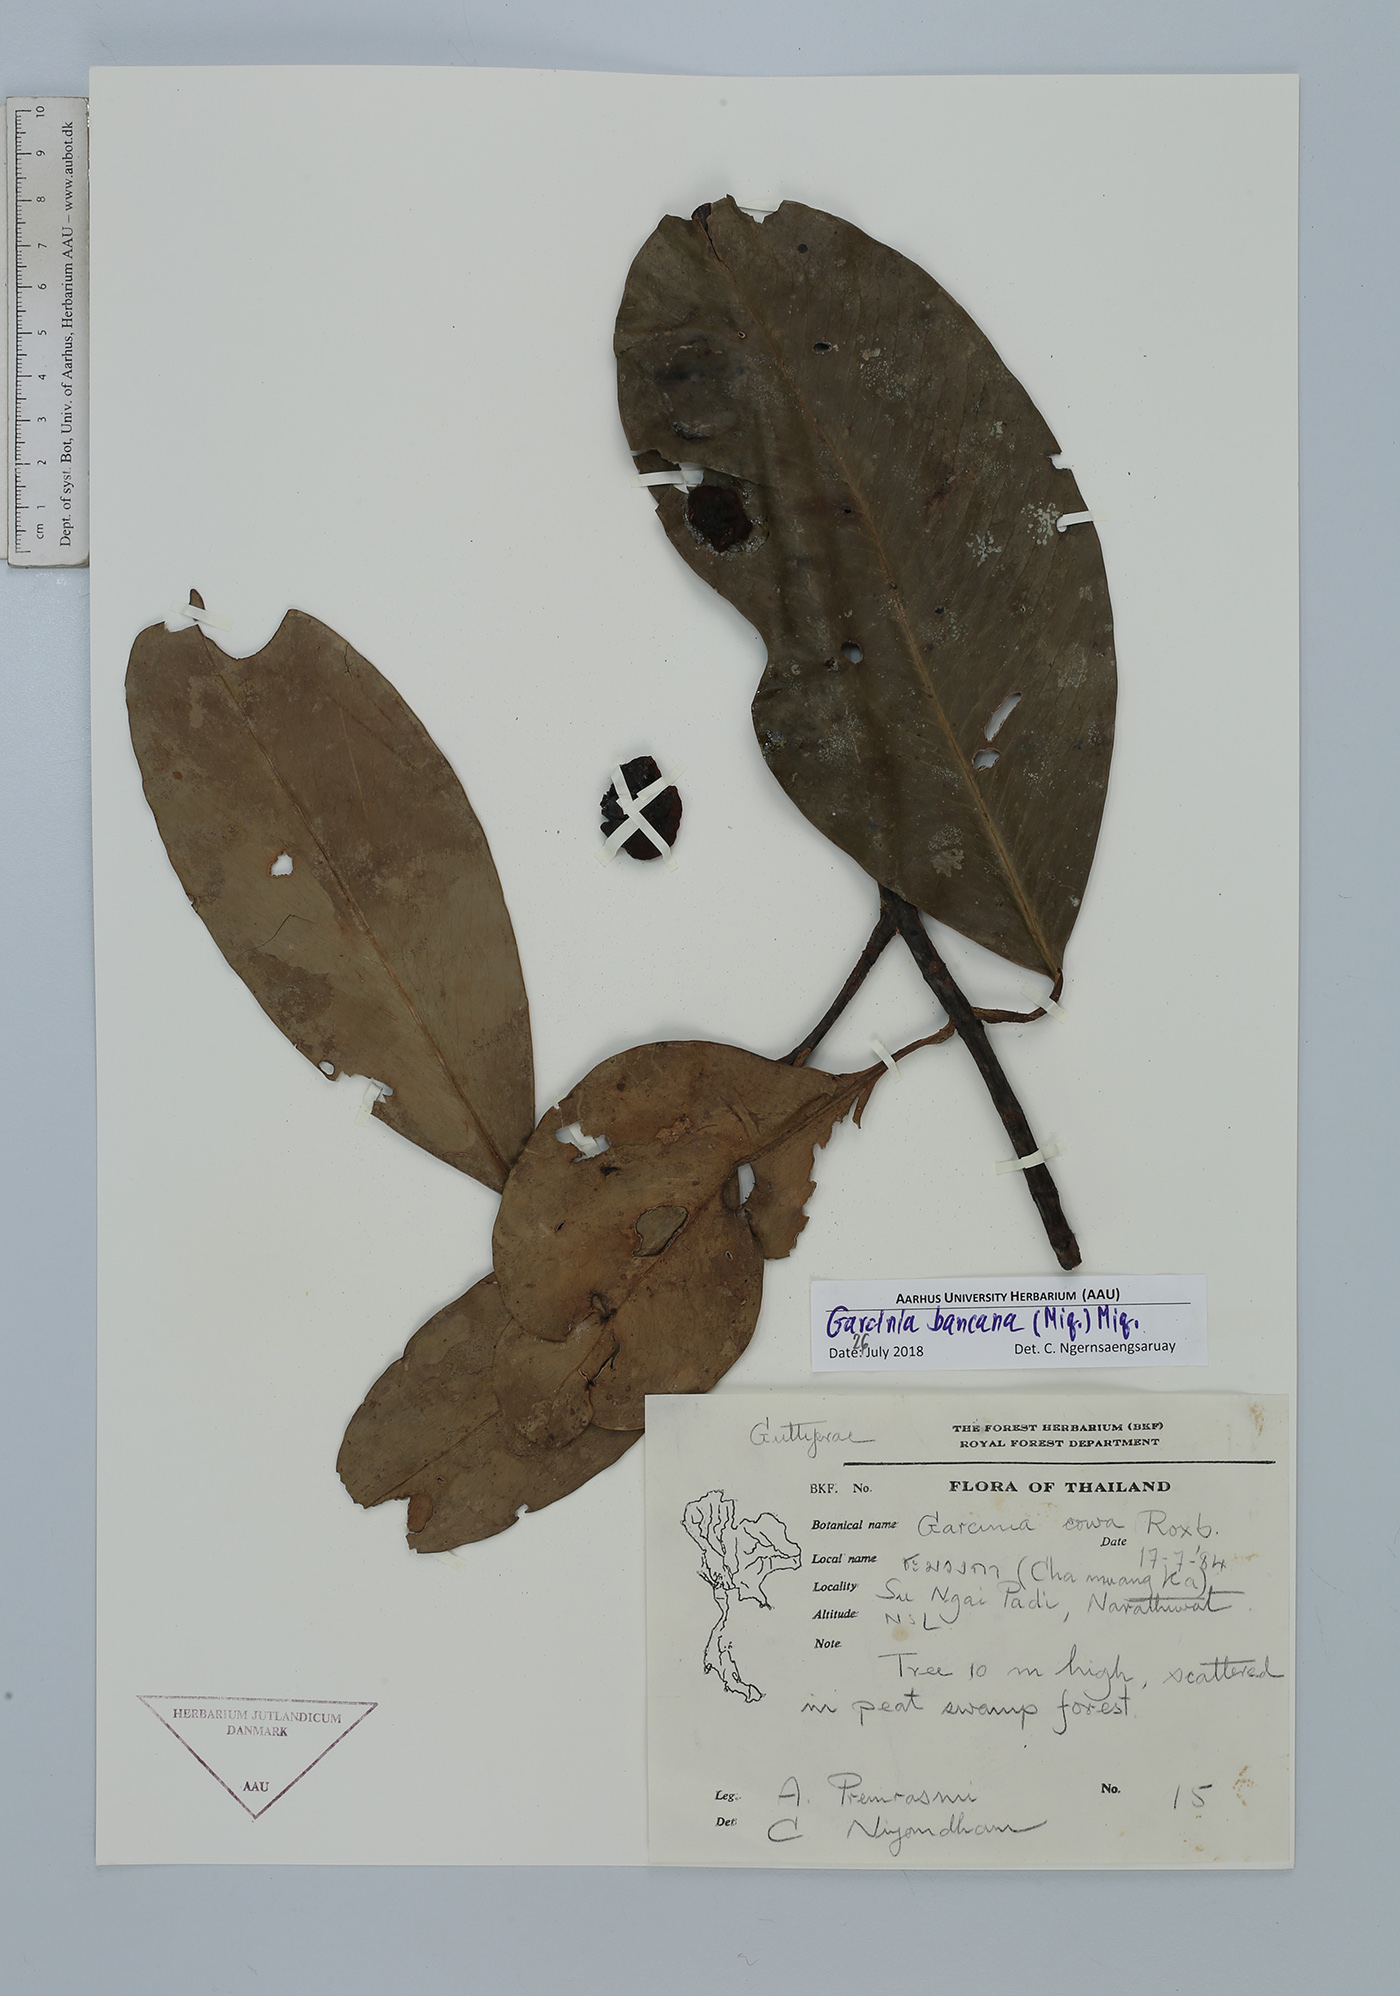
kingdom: Plantae
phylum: Tracheophyta
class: Magnoliopsida
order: Malpighiales
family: Clusiaceae
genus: Garcinia
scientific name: Garcinia bancana
